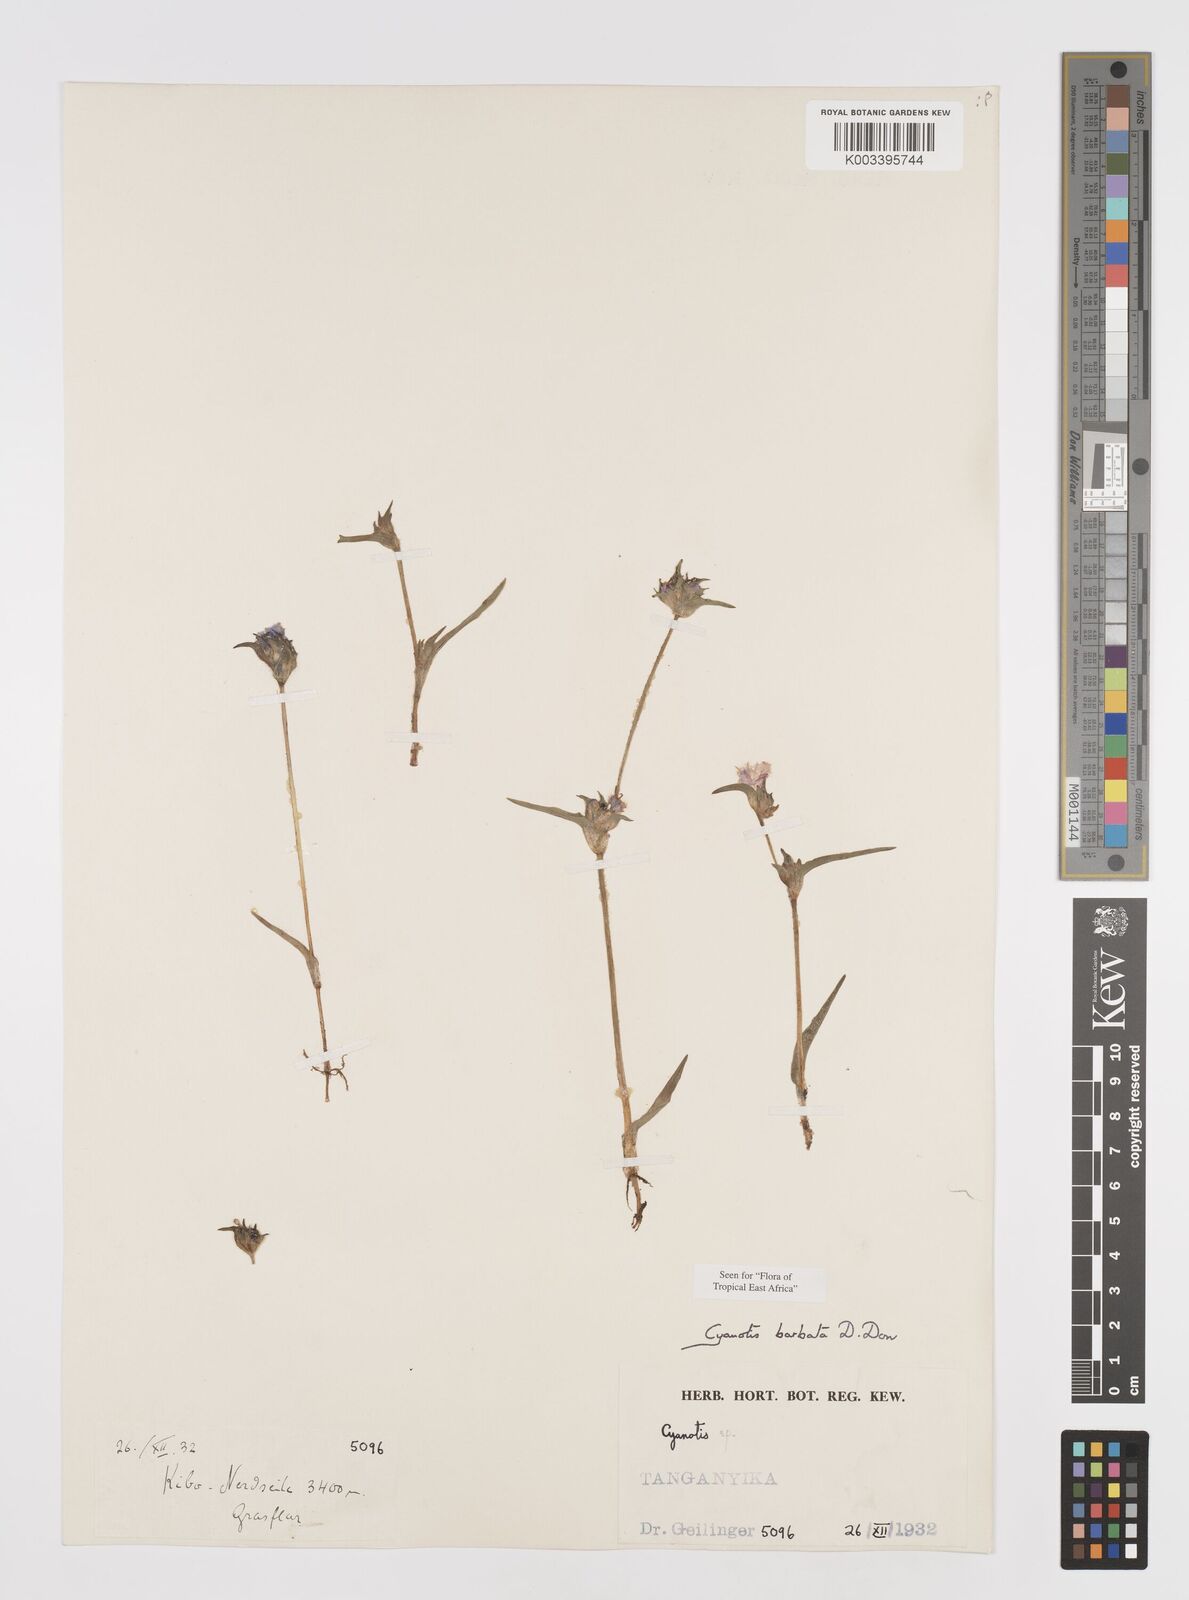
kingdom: Plantae
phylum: Tracheophyta
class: Liliopsida
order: Commelinales
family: Commelinaceae
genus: Cyanotis
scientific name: Cyanotis vaga
